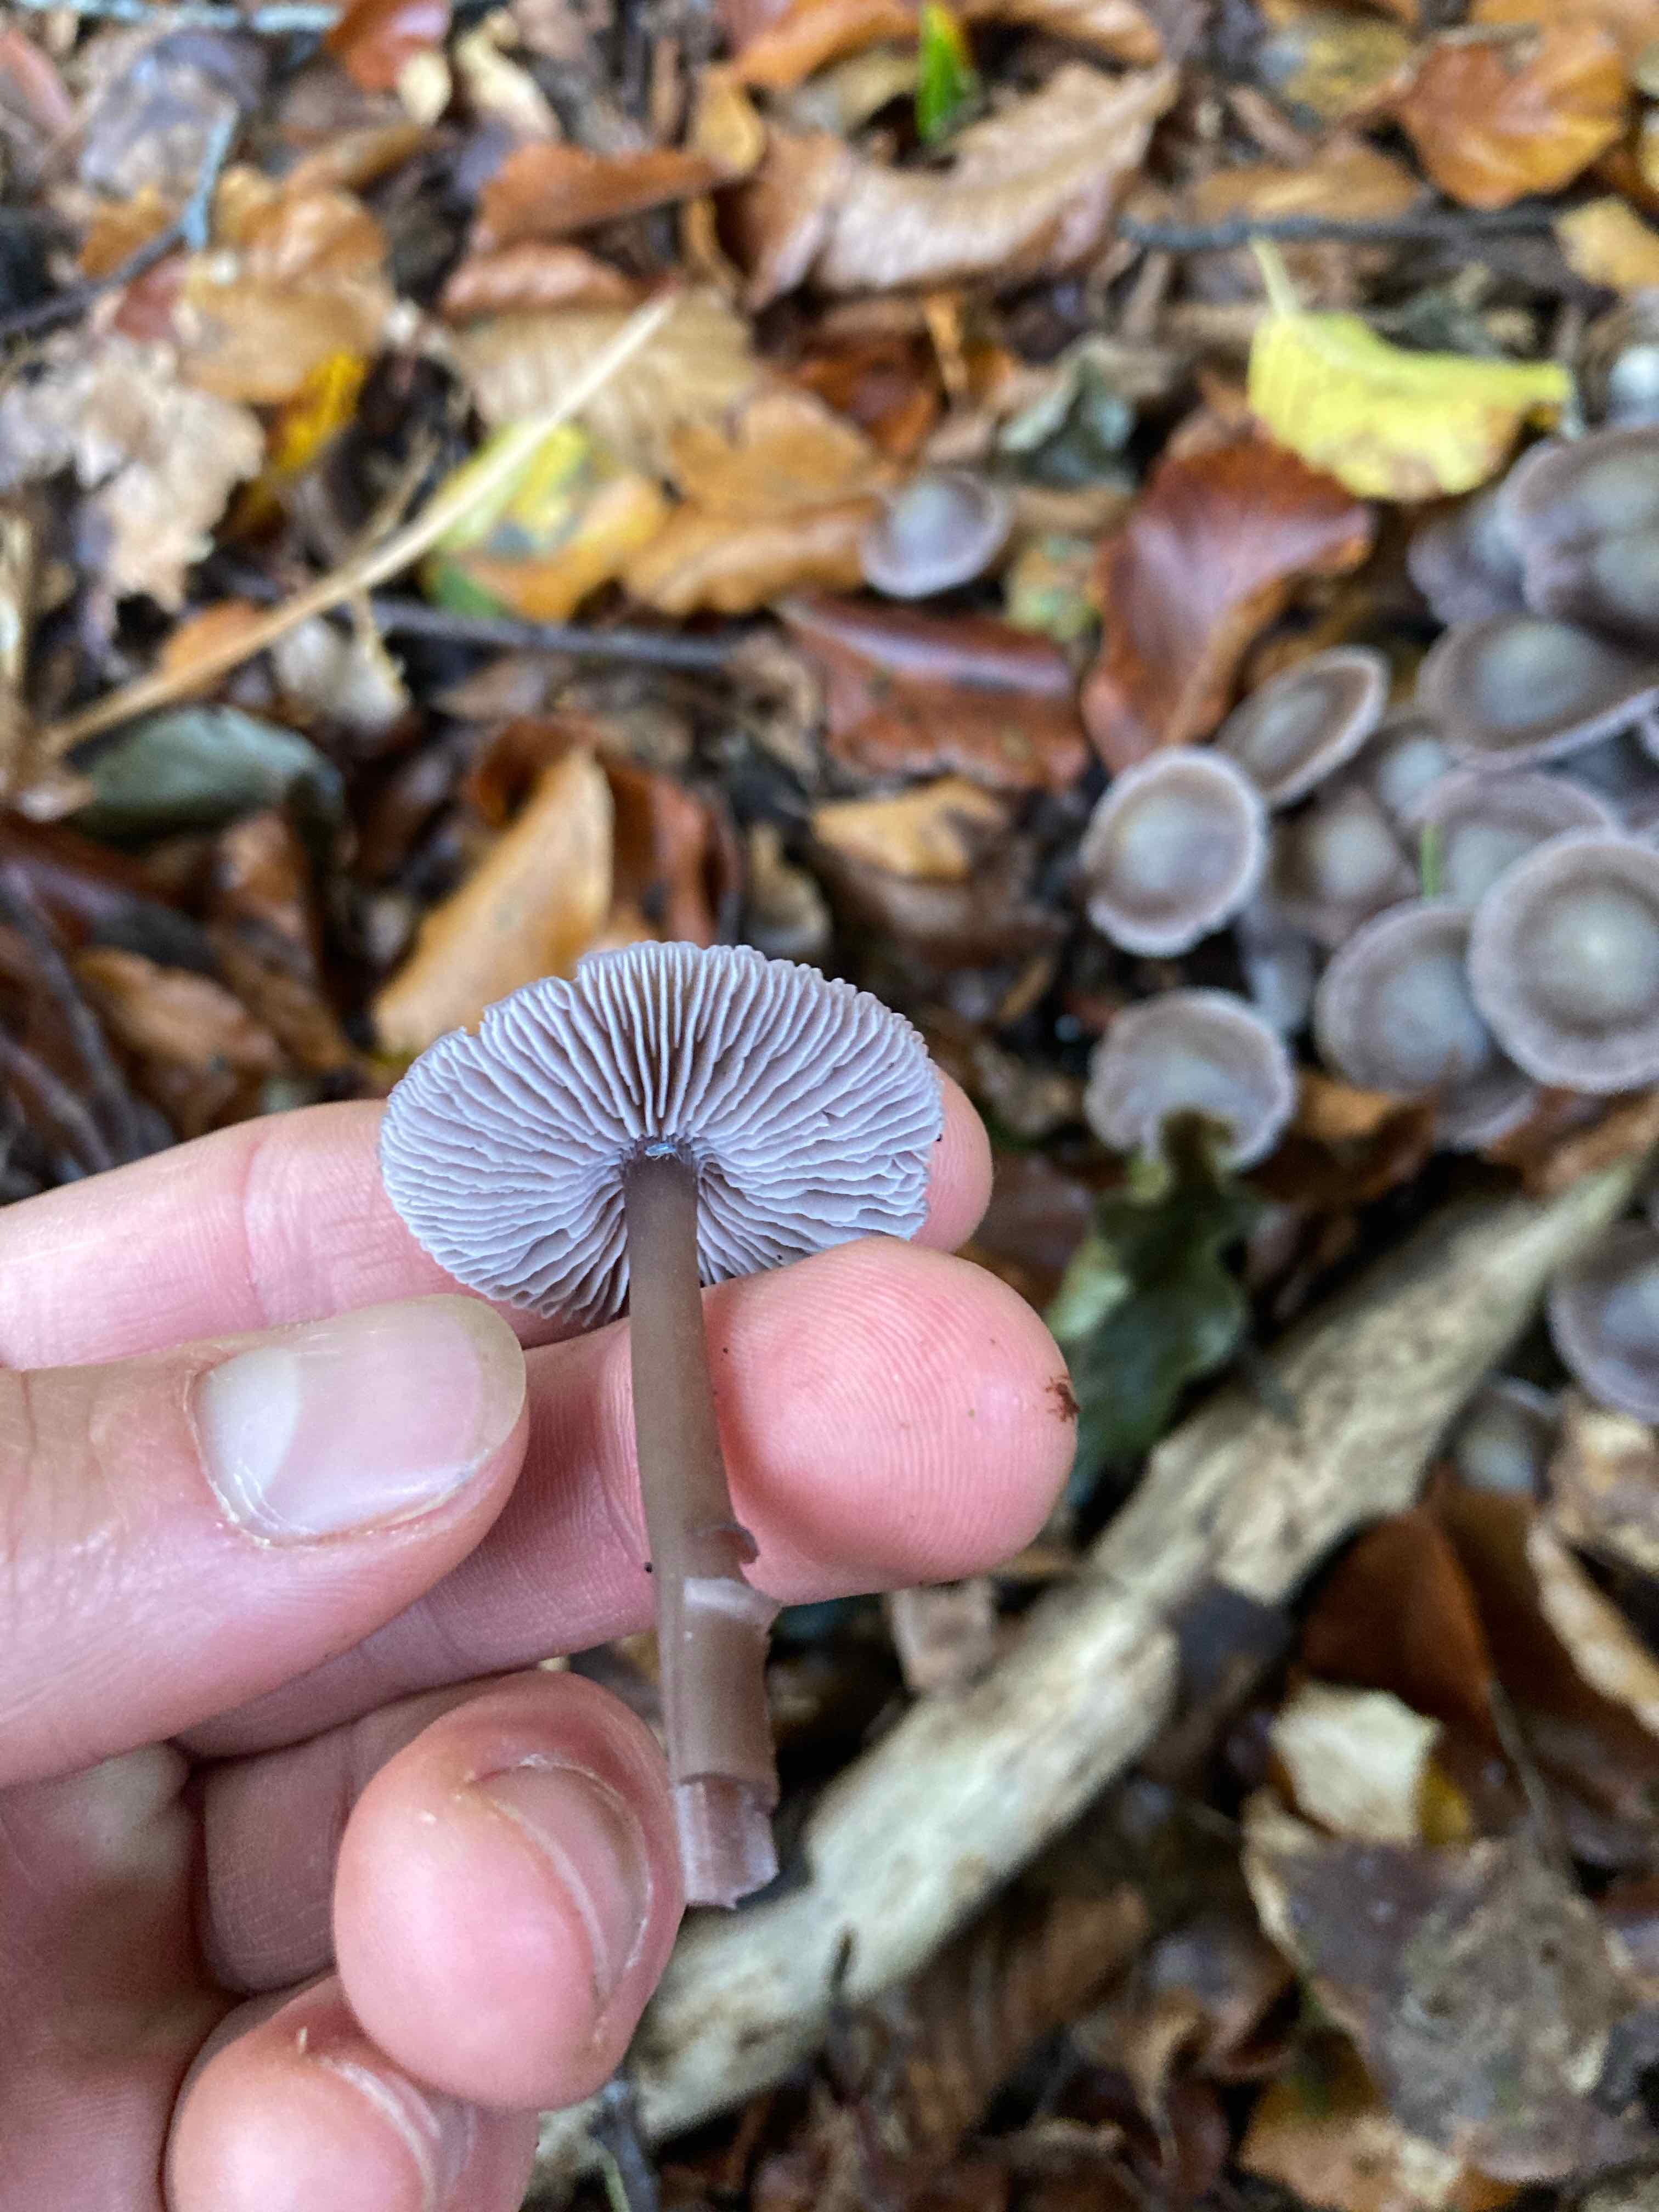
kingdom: Fungi
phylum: Basidiomycota
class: Agaricomycetes
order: Agaricales
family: Mycenaceae
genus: Prunulus
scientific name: Prunulus diosmus
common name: tobaks-huesvamp
